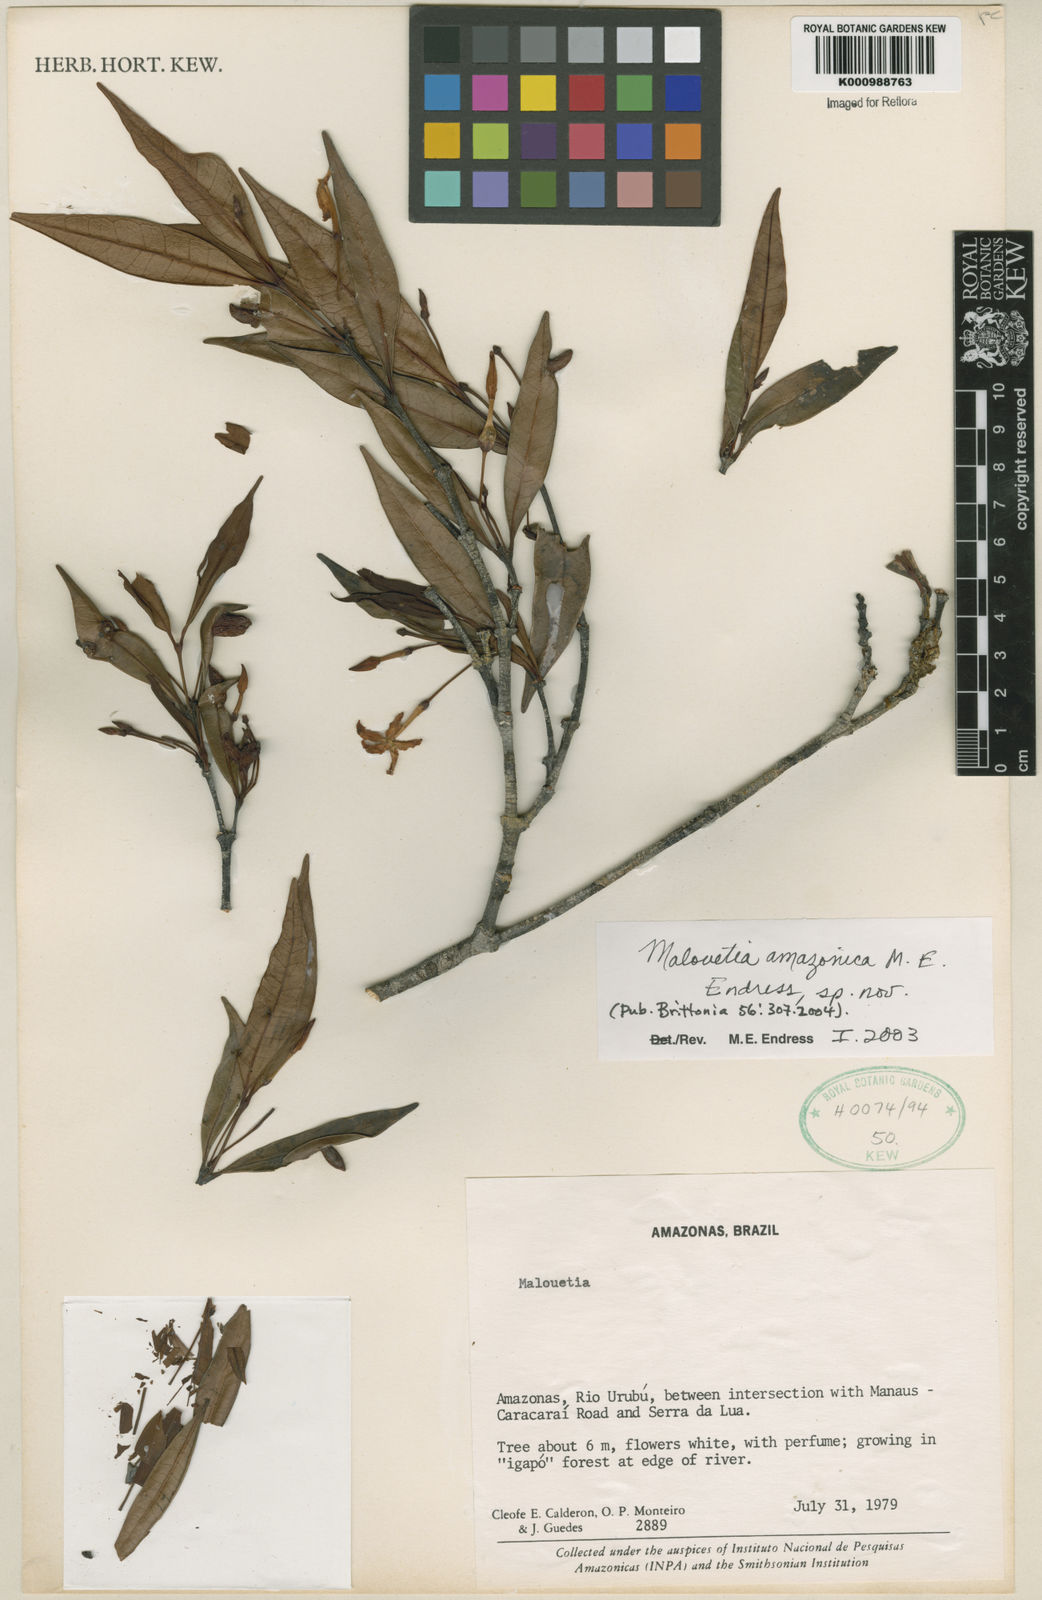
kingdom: Plantae
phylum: Tracheophyta
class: Magnoliopsida
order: Gentianales
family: Apocynaceae
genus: Malouetia
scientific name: Malouetia amazonica
